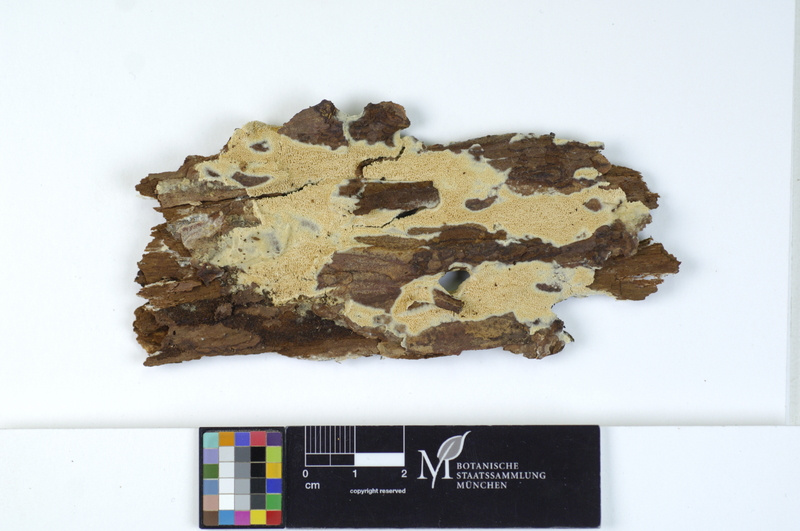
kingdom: Fungi
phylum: Basidiomycota
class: Agaricomycetes
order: Hymenochaetales
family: Schizoporaceae
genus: Xylodon
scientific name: Xylodon raduloides
